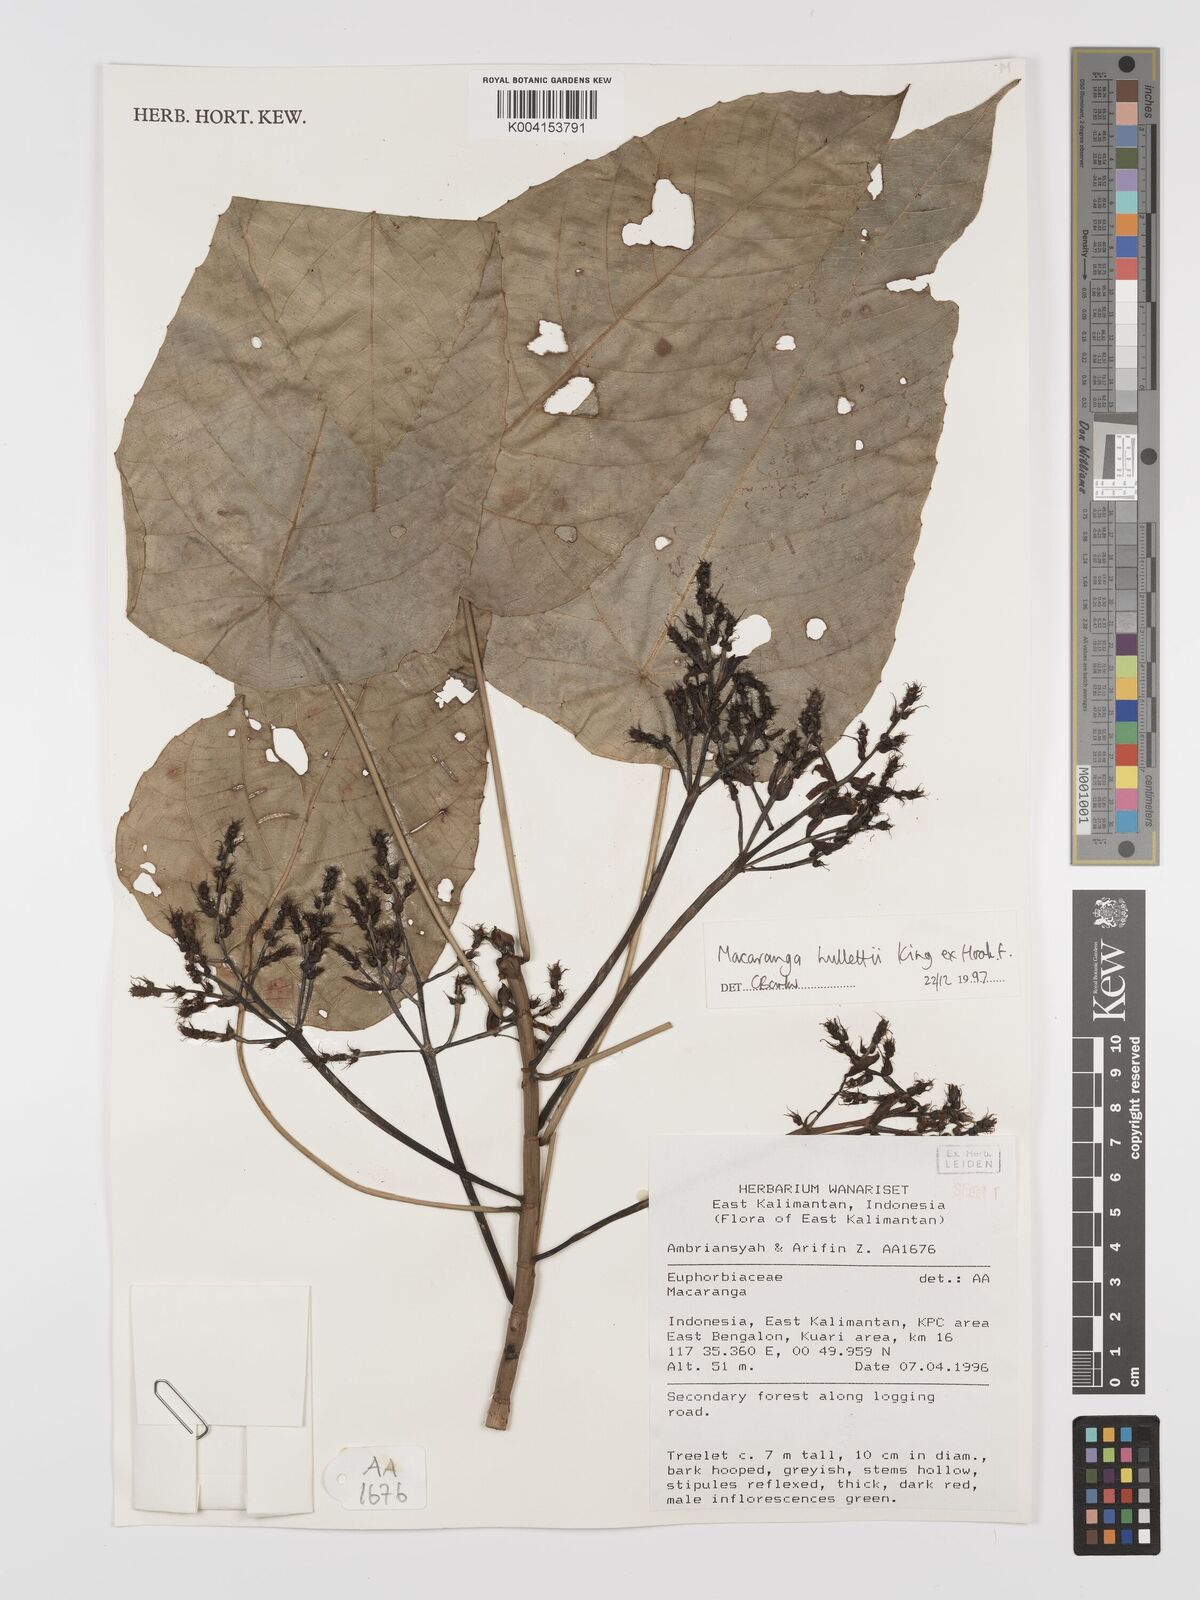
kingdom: Plantae
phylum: Tracheophyta
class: Magnoliopsida
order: Malpighiales
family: Euphorbiaceae
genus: Macaranga
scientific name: Macaranga hullettii
